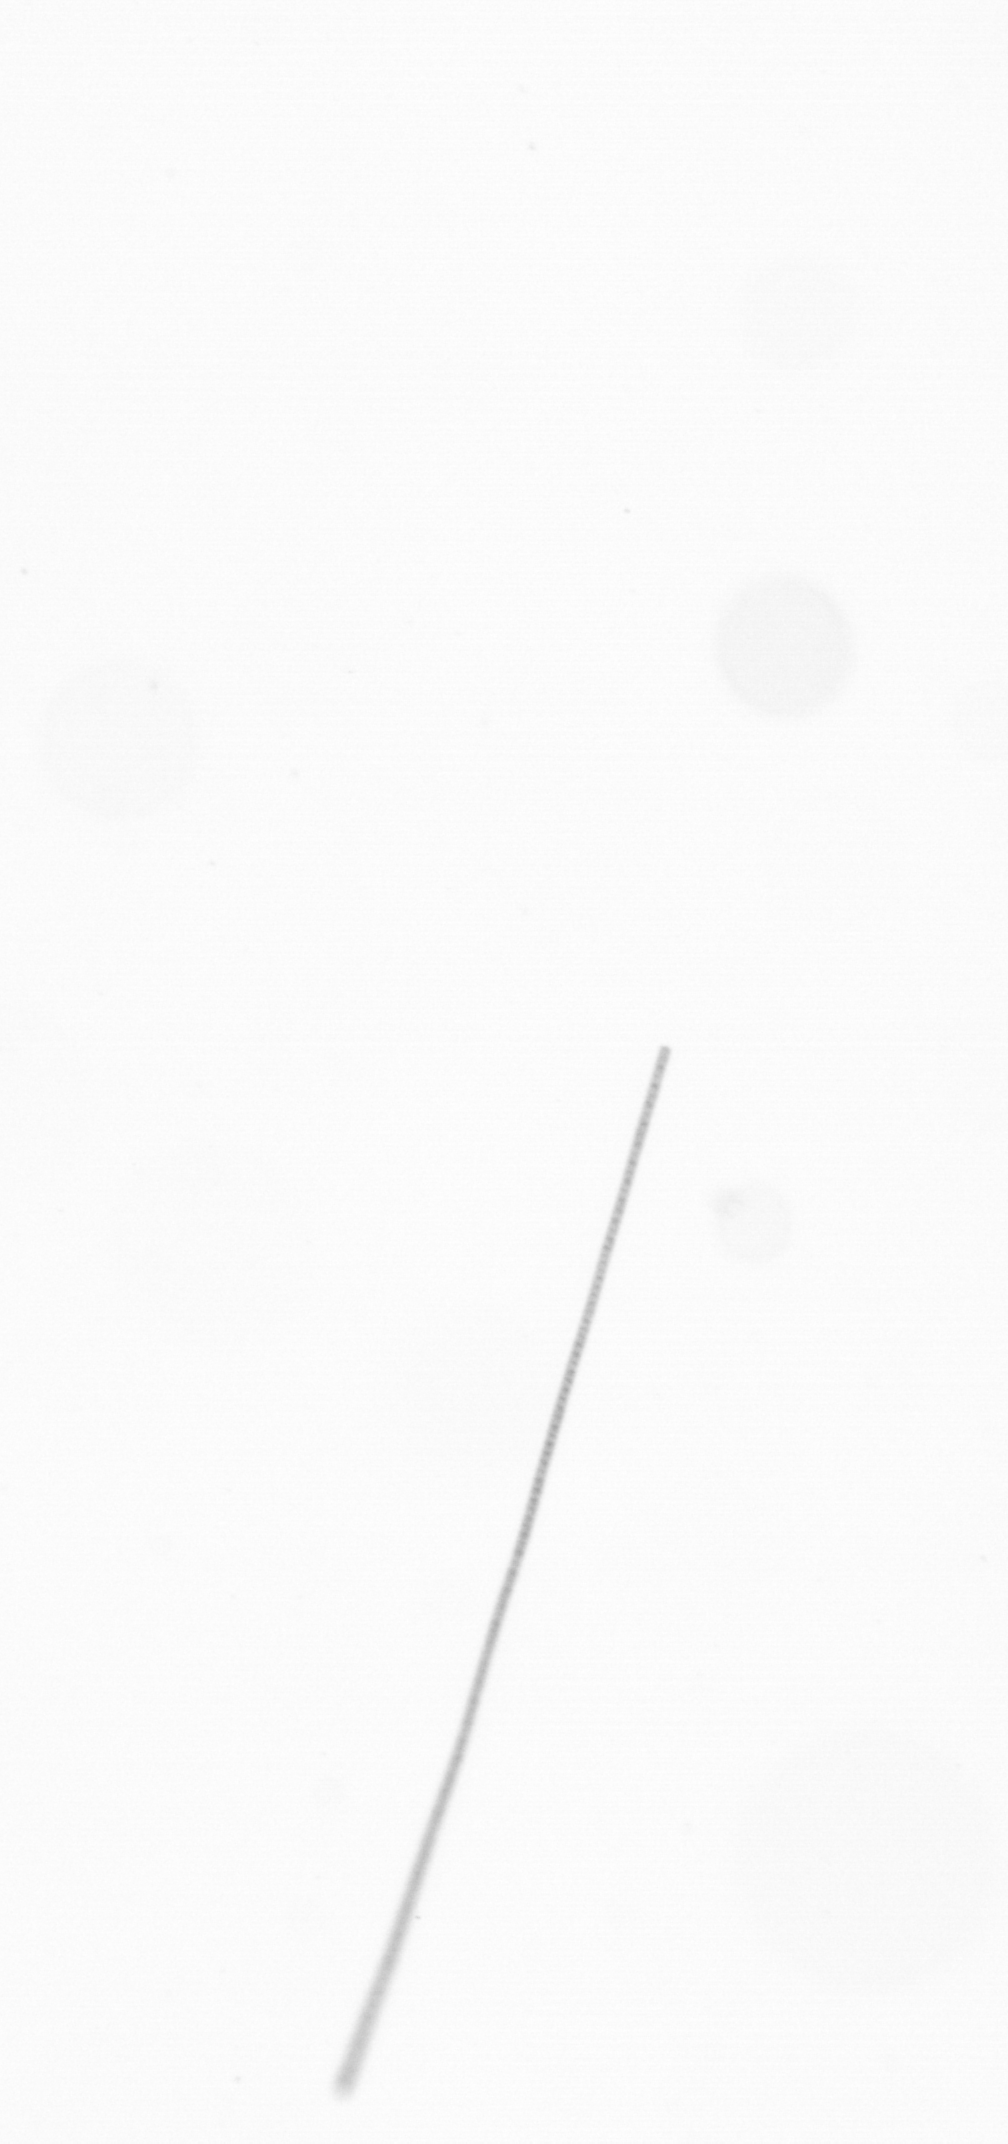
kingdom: Chromista
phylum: Ochrophyta
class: Bacillariophyceae
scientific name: Bacillariophyceae
